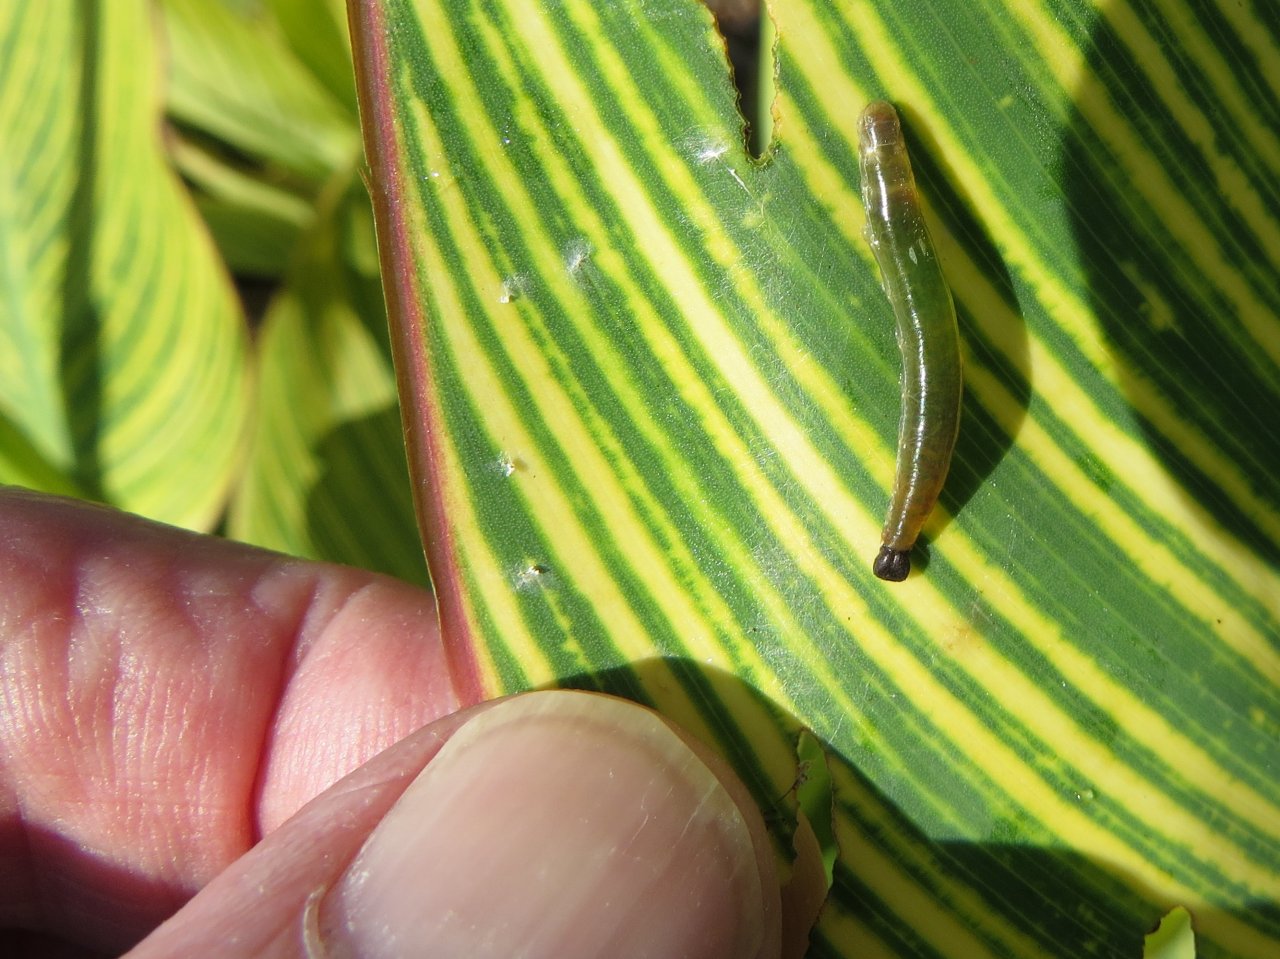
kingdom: Animalia
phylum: Arthropoda
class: Insecta
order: Lepidoptera
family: Hesperiidae
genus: Calpodes
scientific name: Calpodes ethlius
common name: Brazilian Skipper
